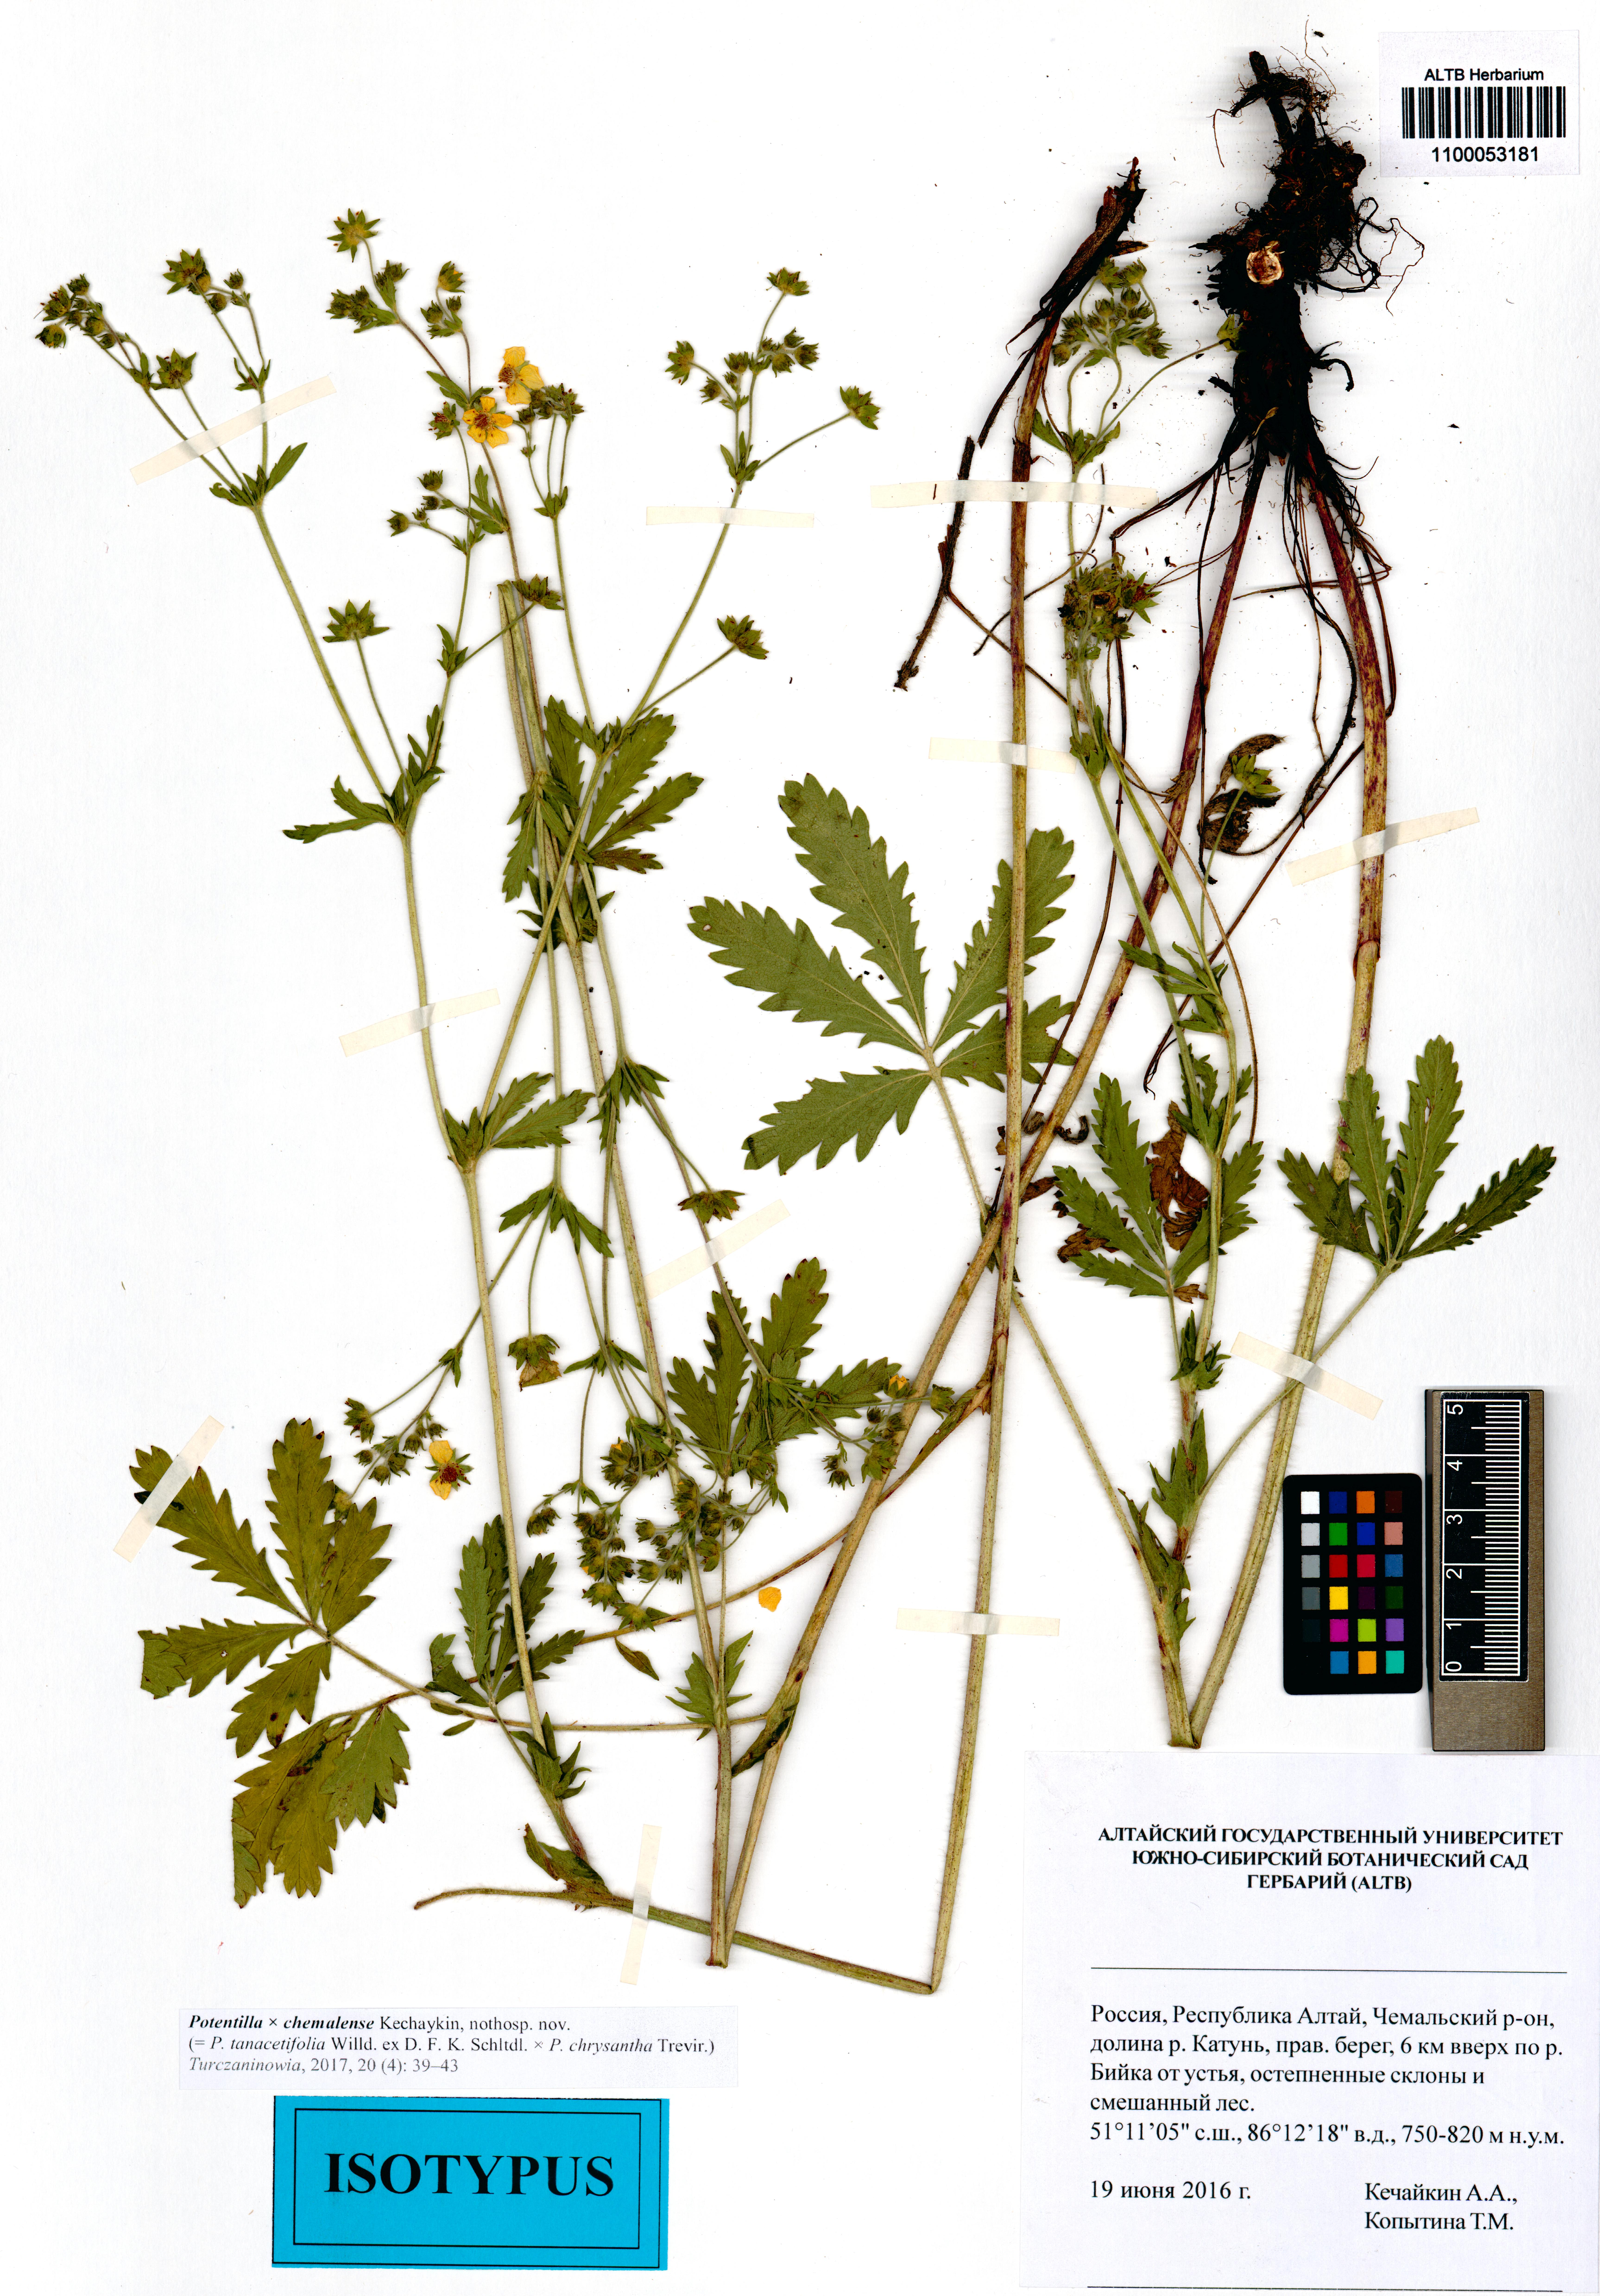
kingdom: Plantae
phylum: Tracheophyta
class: Magnoliopsida
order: Rosales
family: Rosaceae
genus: Potentilla
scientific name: Potentilla chemalensis
